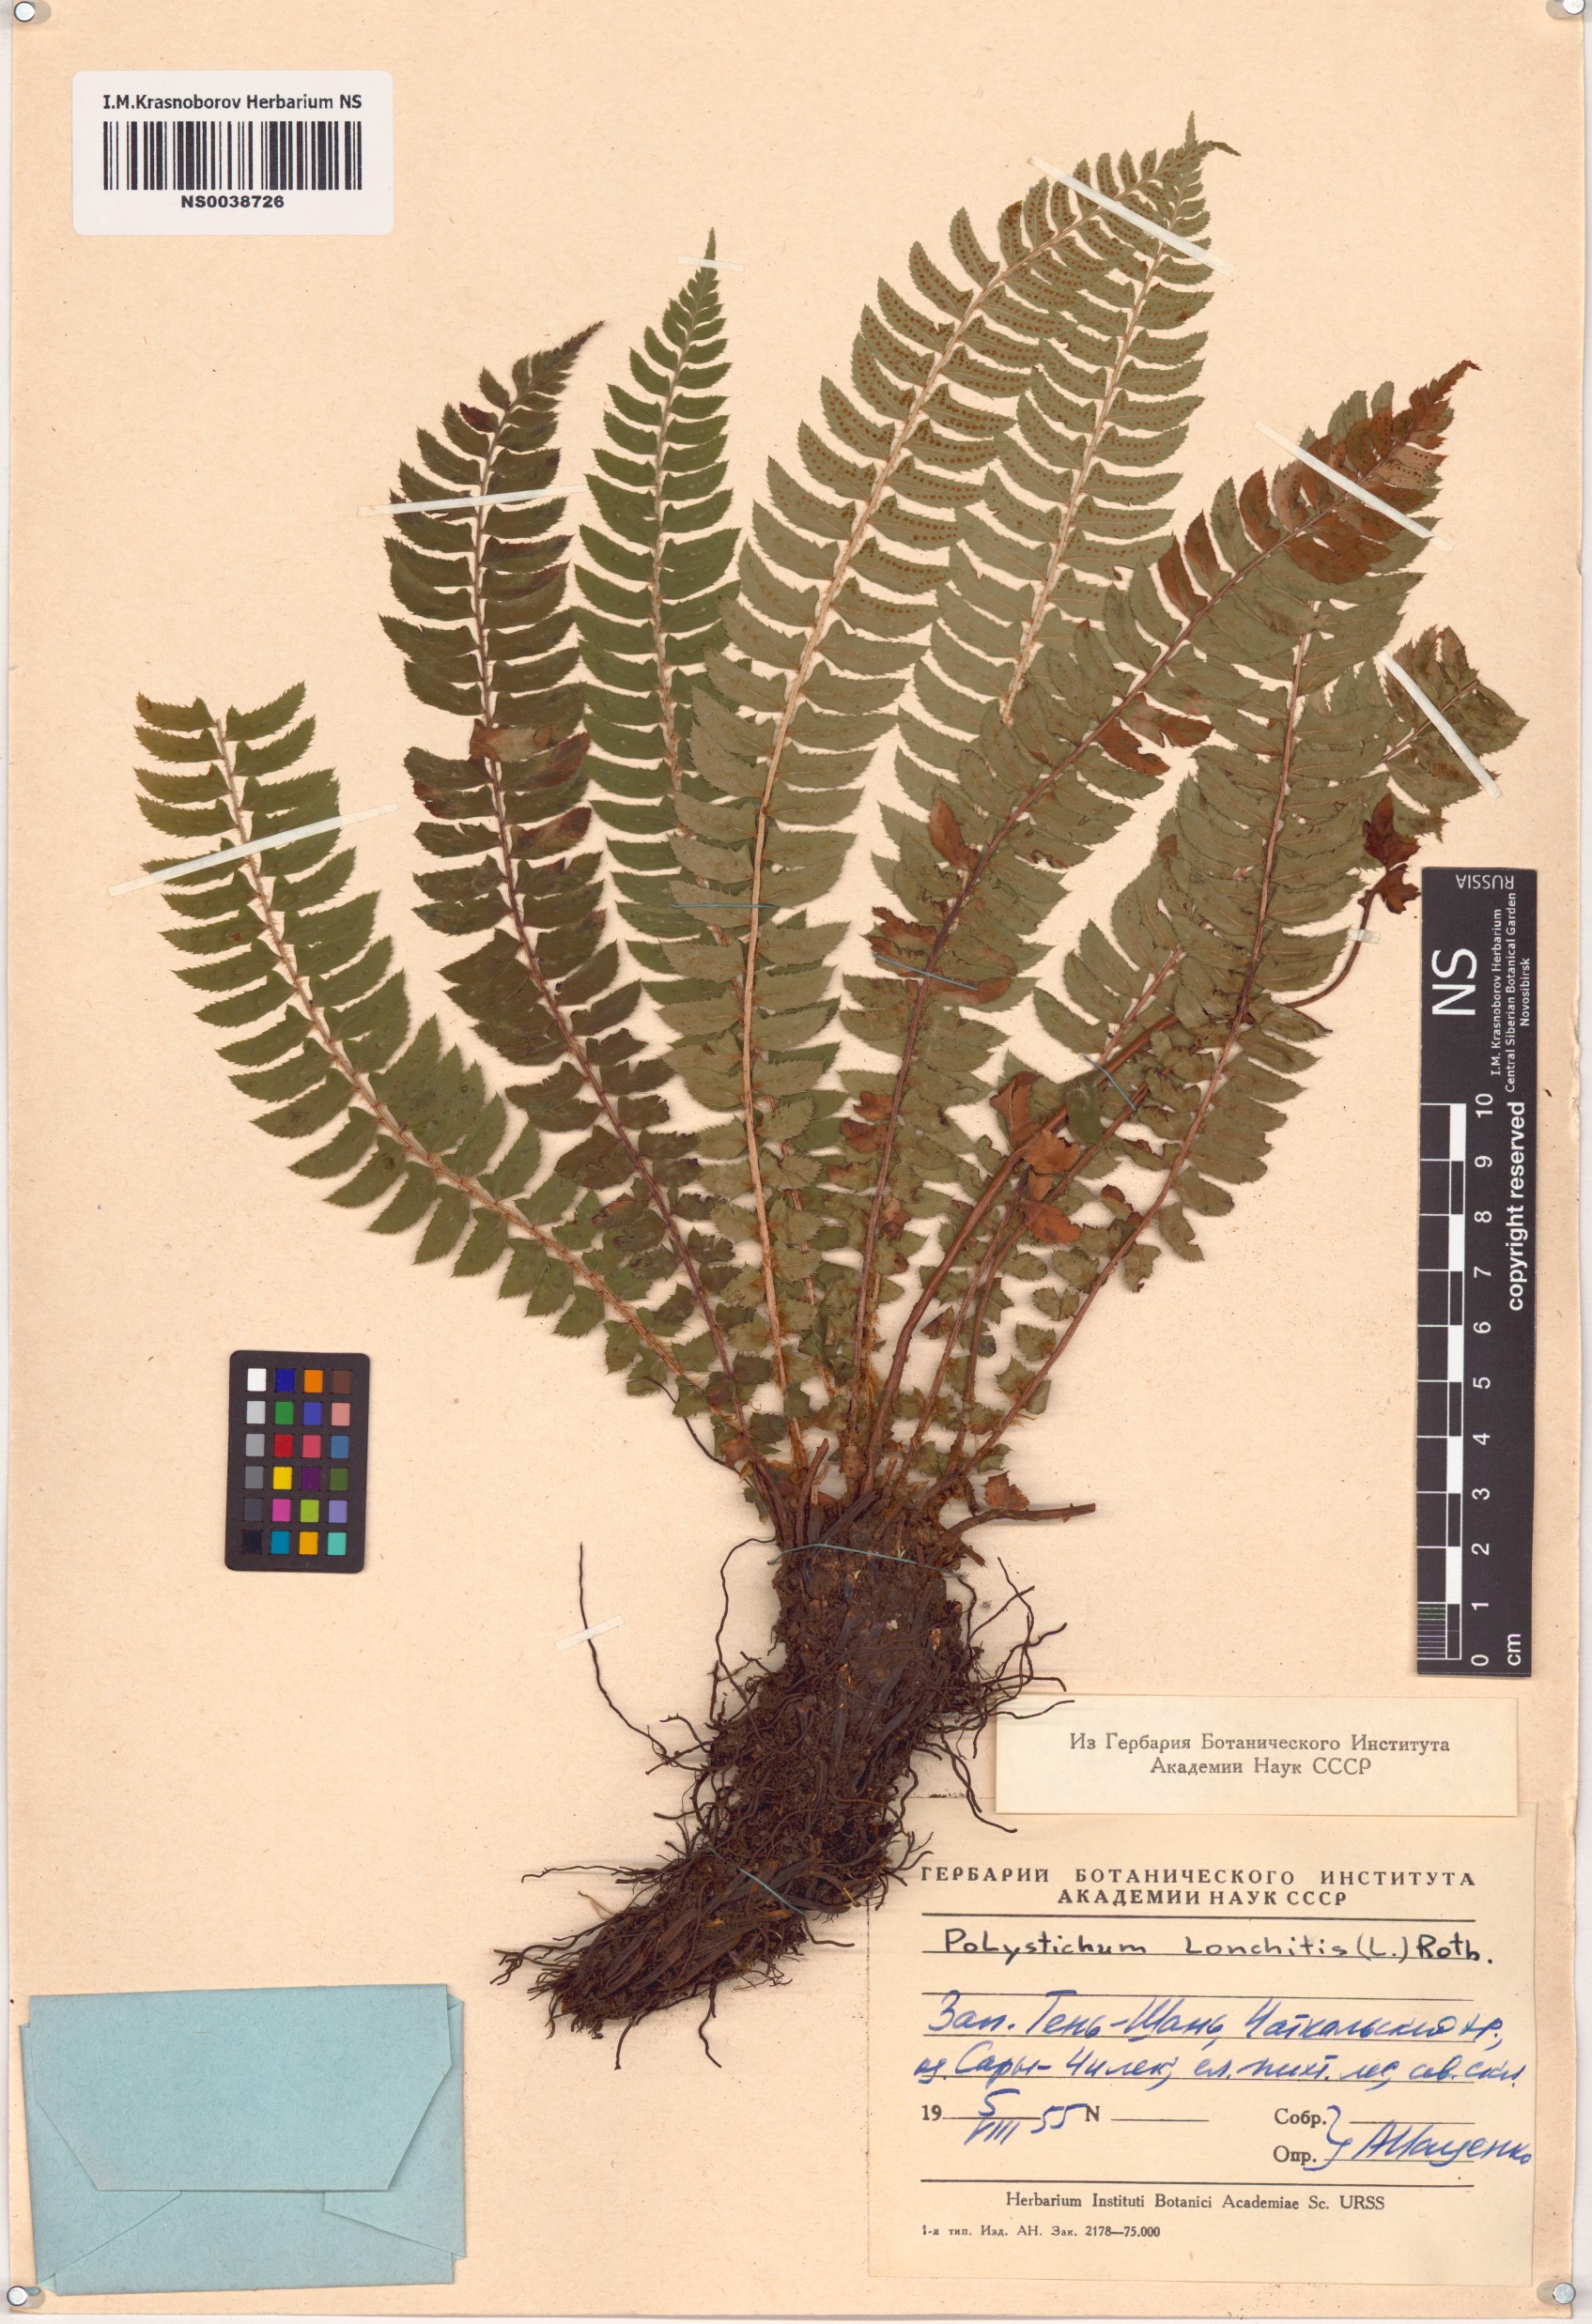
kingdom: Plantae
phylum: Tracheophyta
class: Polypodiopsida
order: Polypodiales
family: Dryopteridaceae
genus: Polystichum
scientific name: Polystichum lonchitis
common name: Holly fern
